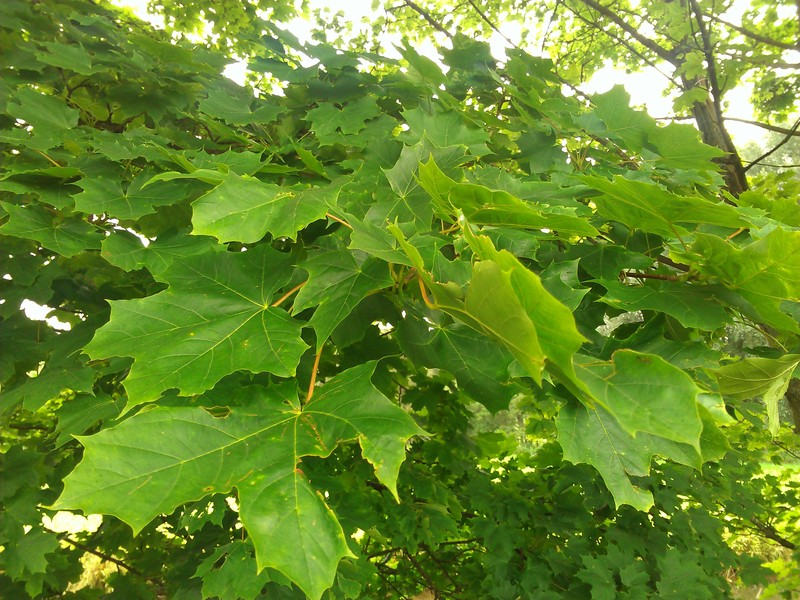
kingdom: Plantae
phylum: Tracheophyta
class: Magnoliopsida
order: Sapindales
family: Sapindaceae
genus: Acer
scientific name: Acer platanoides
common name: Norway maple
